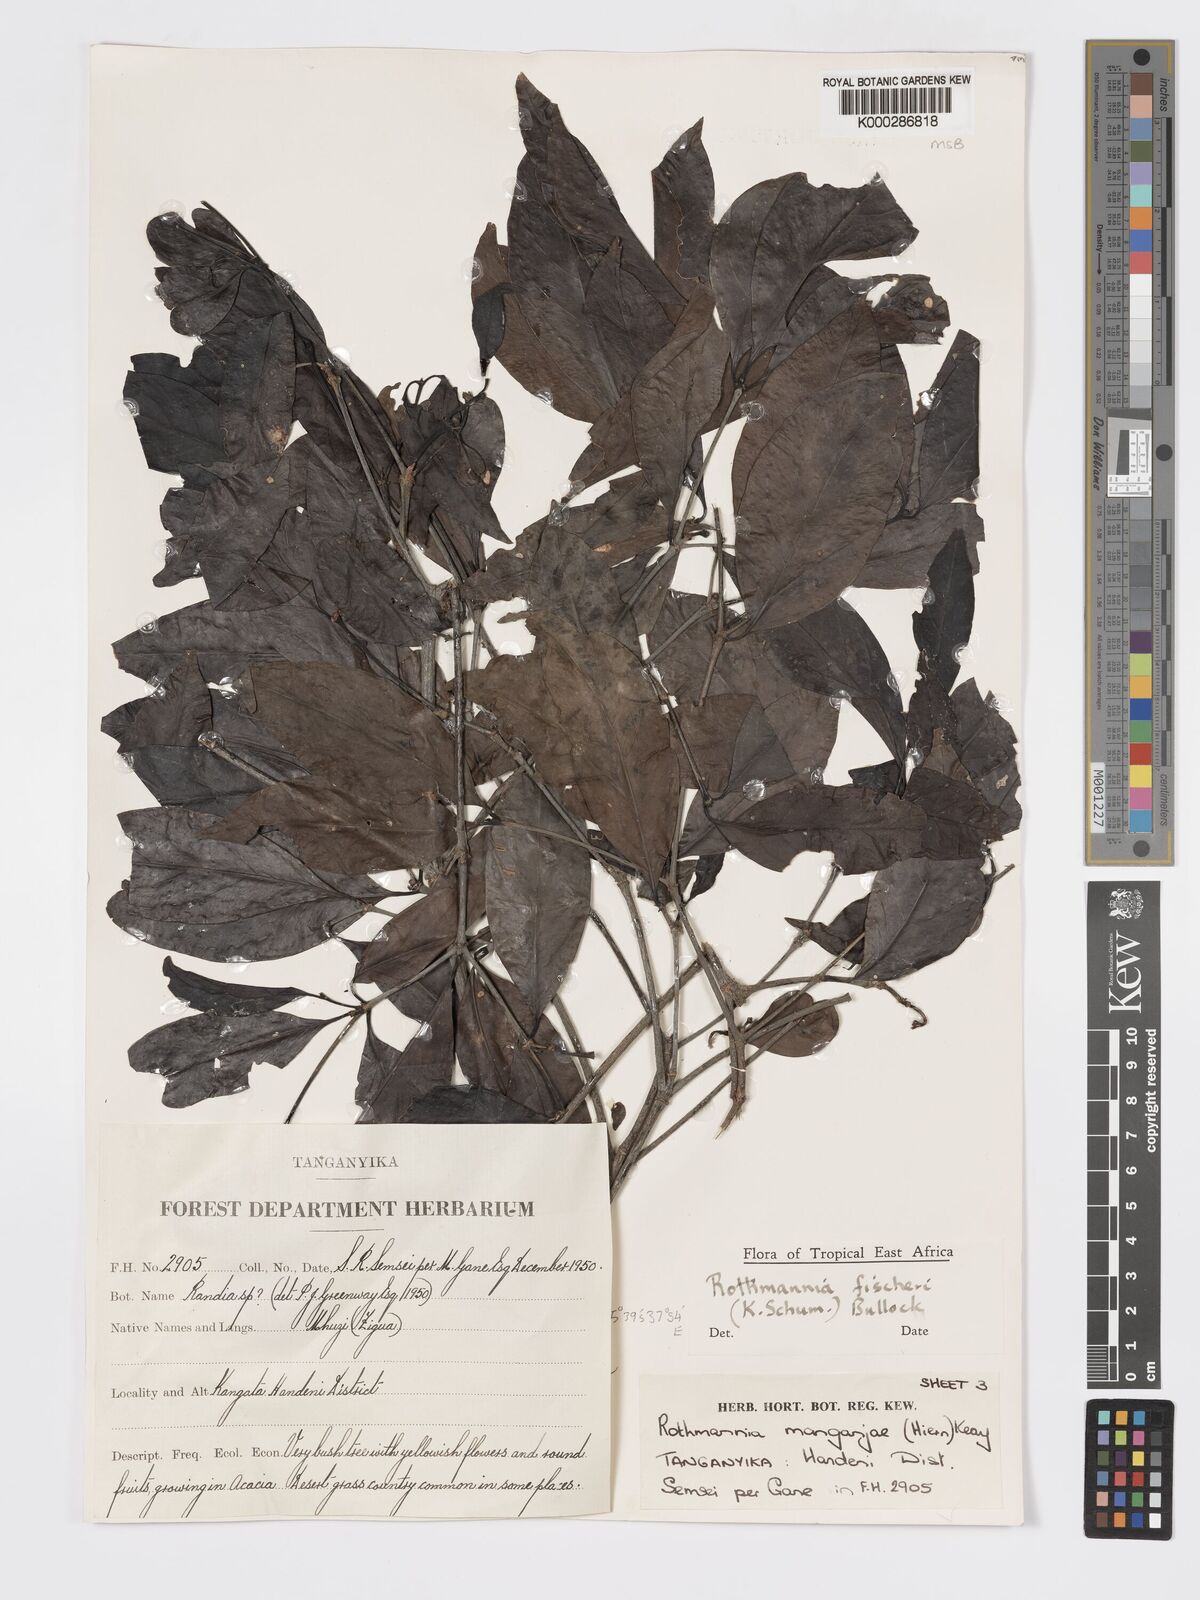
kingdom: Plantae
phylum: Tracheophyta
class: Magnoliopsida
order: Gentianales
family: Rubiaceae
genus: Rothmannia
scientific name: Rothmannia ravae
